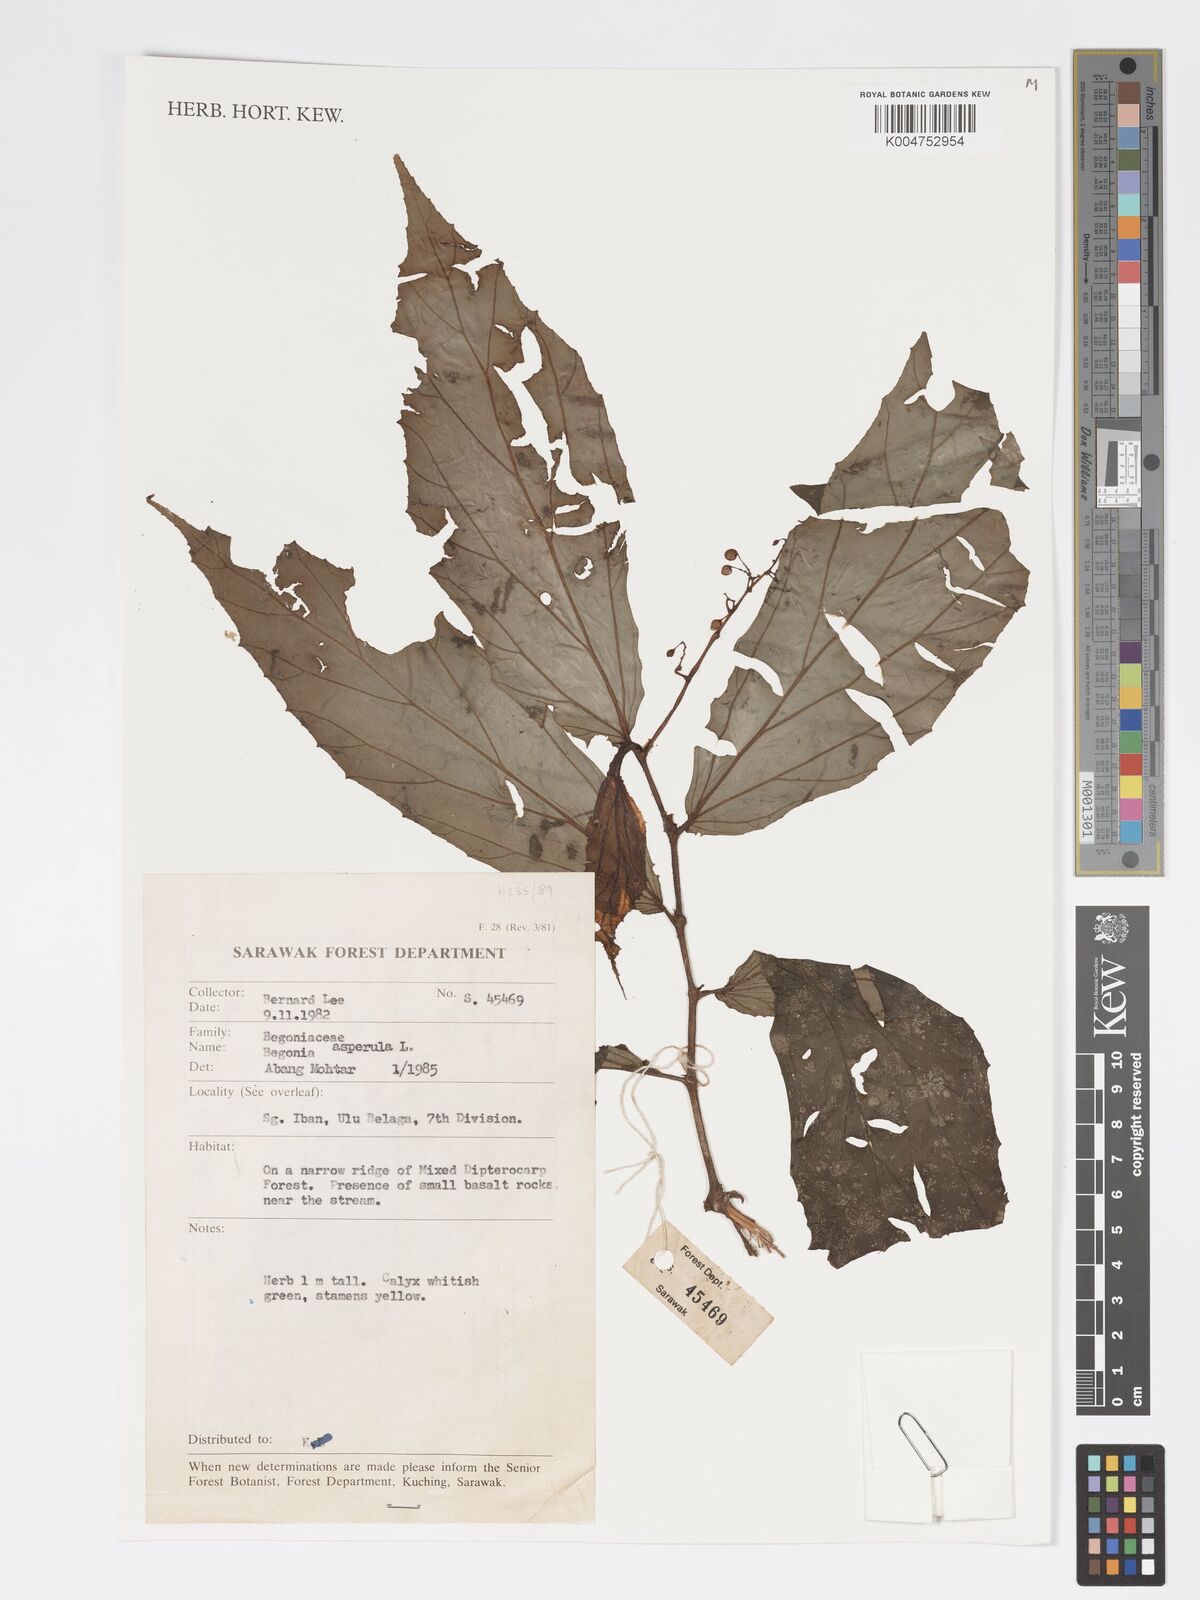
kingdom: Plantae
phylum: Tracheophyta
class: Magnoliopsida
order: Cucurbitales
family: Begoniaceae
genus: Begonia
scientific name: Begonia
